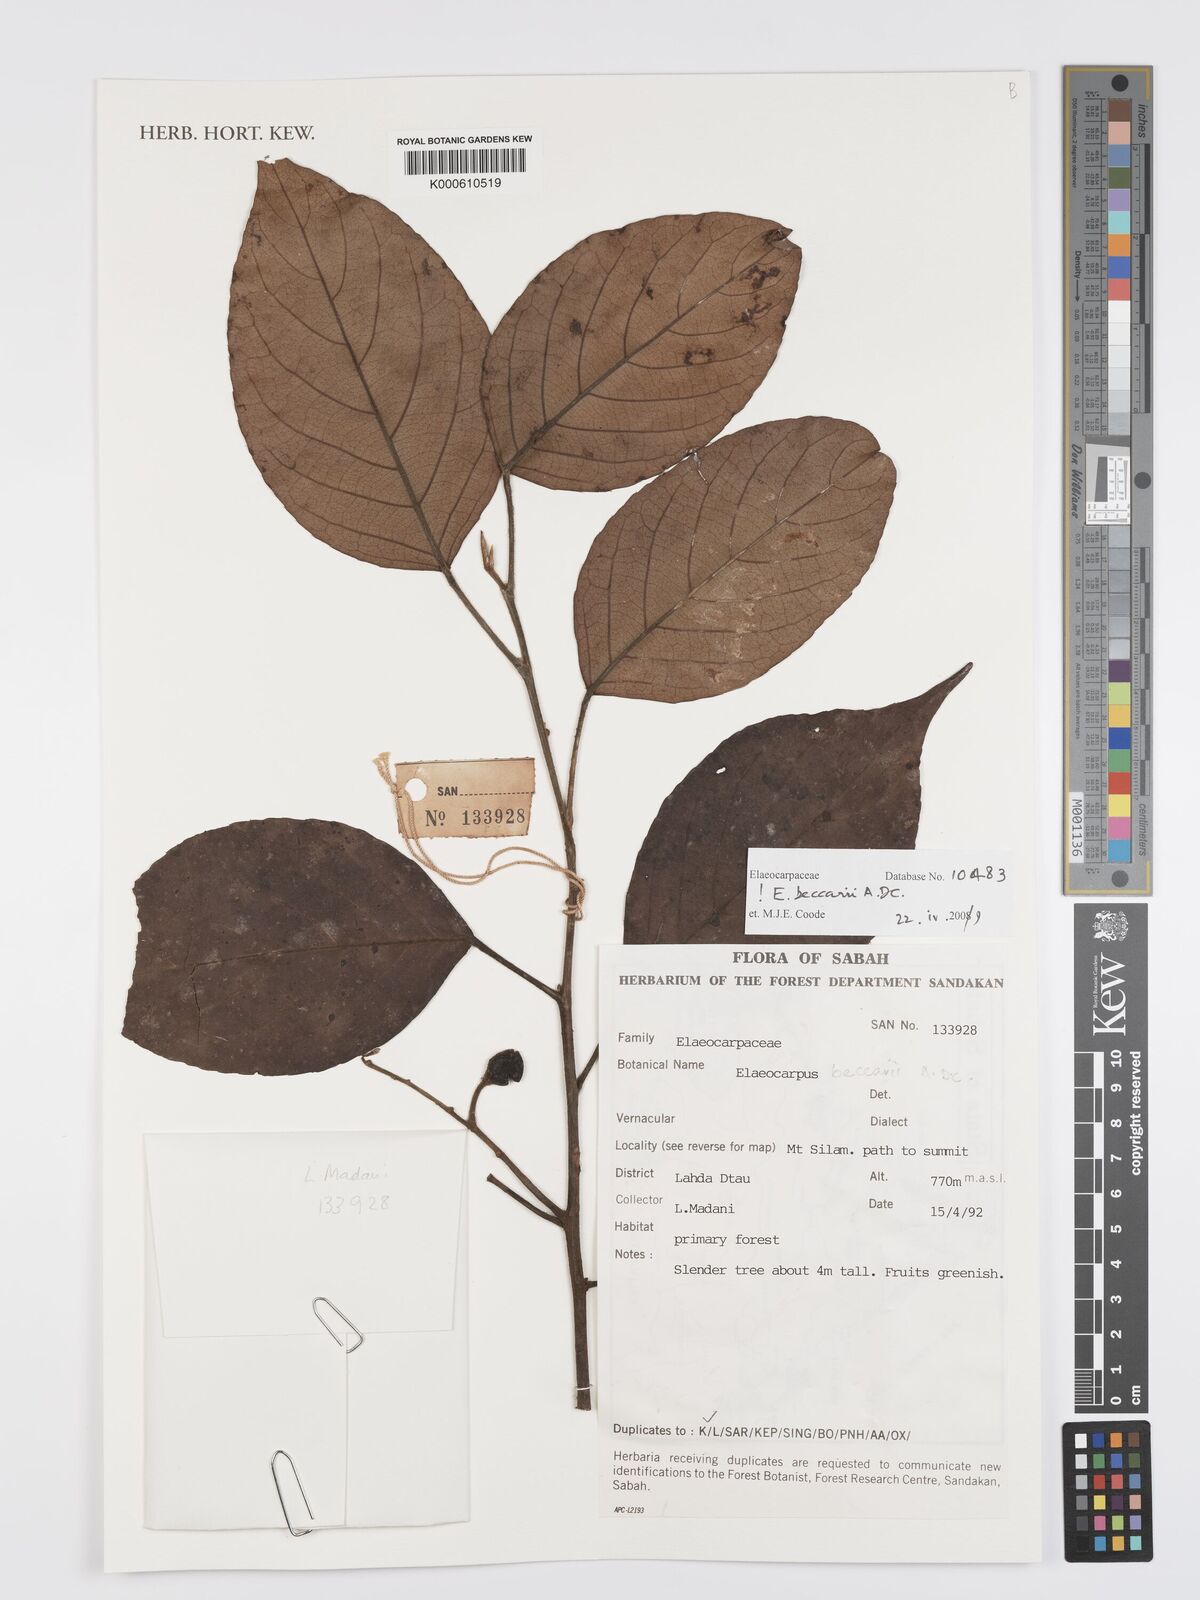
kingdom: Plantae
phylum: Tracheophyta
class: Magnoliopsida
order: Oxalidales
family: Elaeocarpaceae
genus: Elaeocarpus
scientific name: Elaeocarpus beccarii
